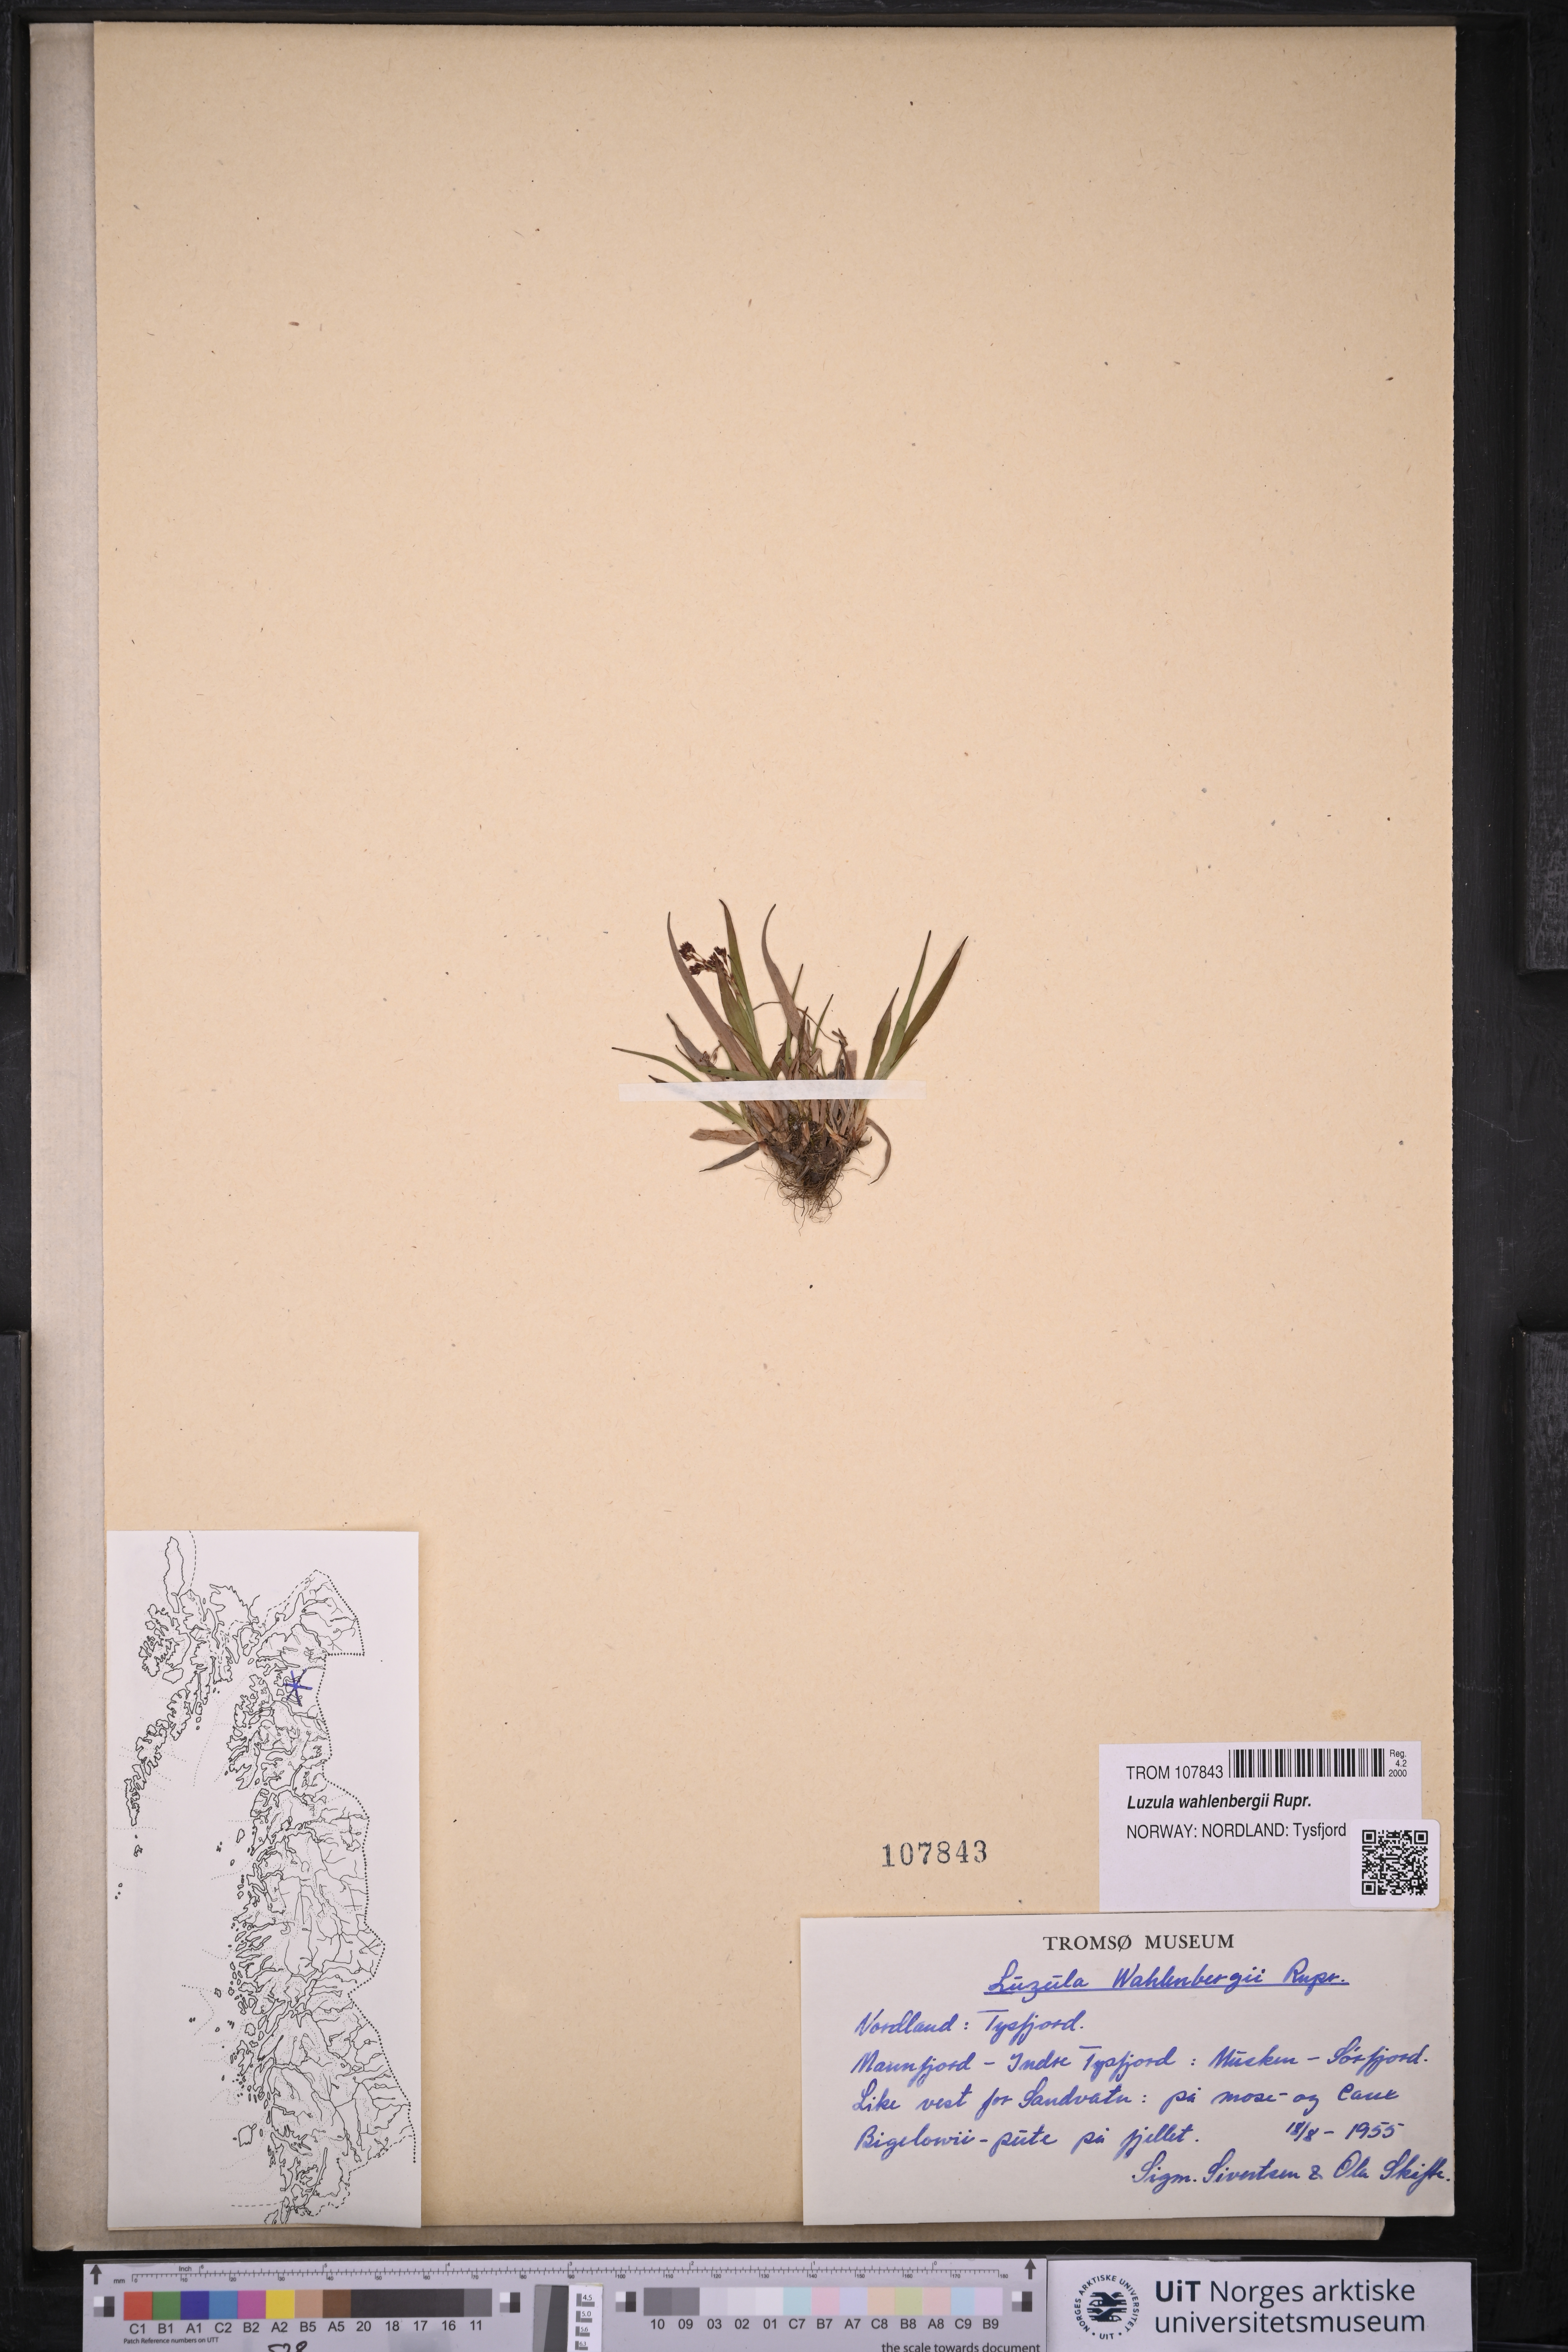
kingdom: Plantae
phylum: Tracheophyta
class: Liliopsida
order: Poales
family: Juncaceae
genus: Luzula
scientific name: Luzula wahlenbergii
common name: Wahlenberg's wood-rush
